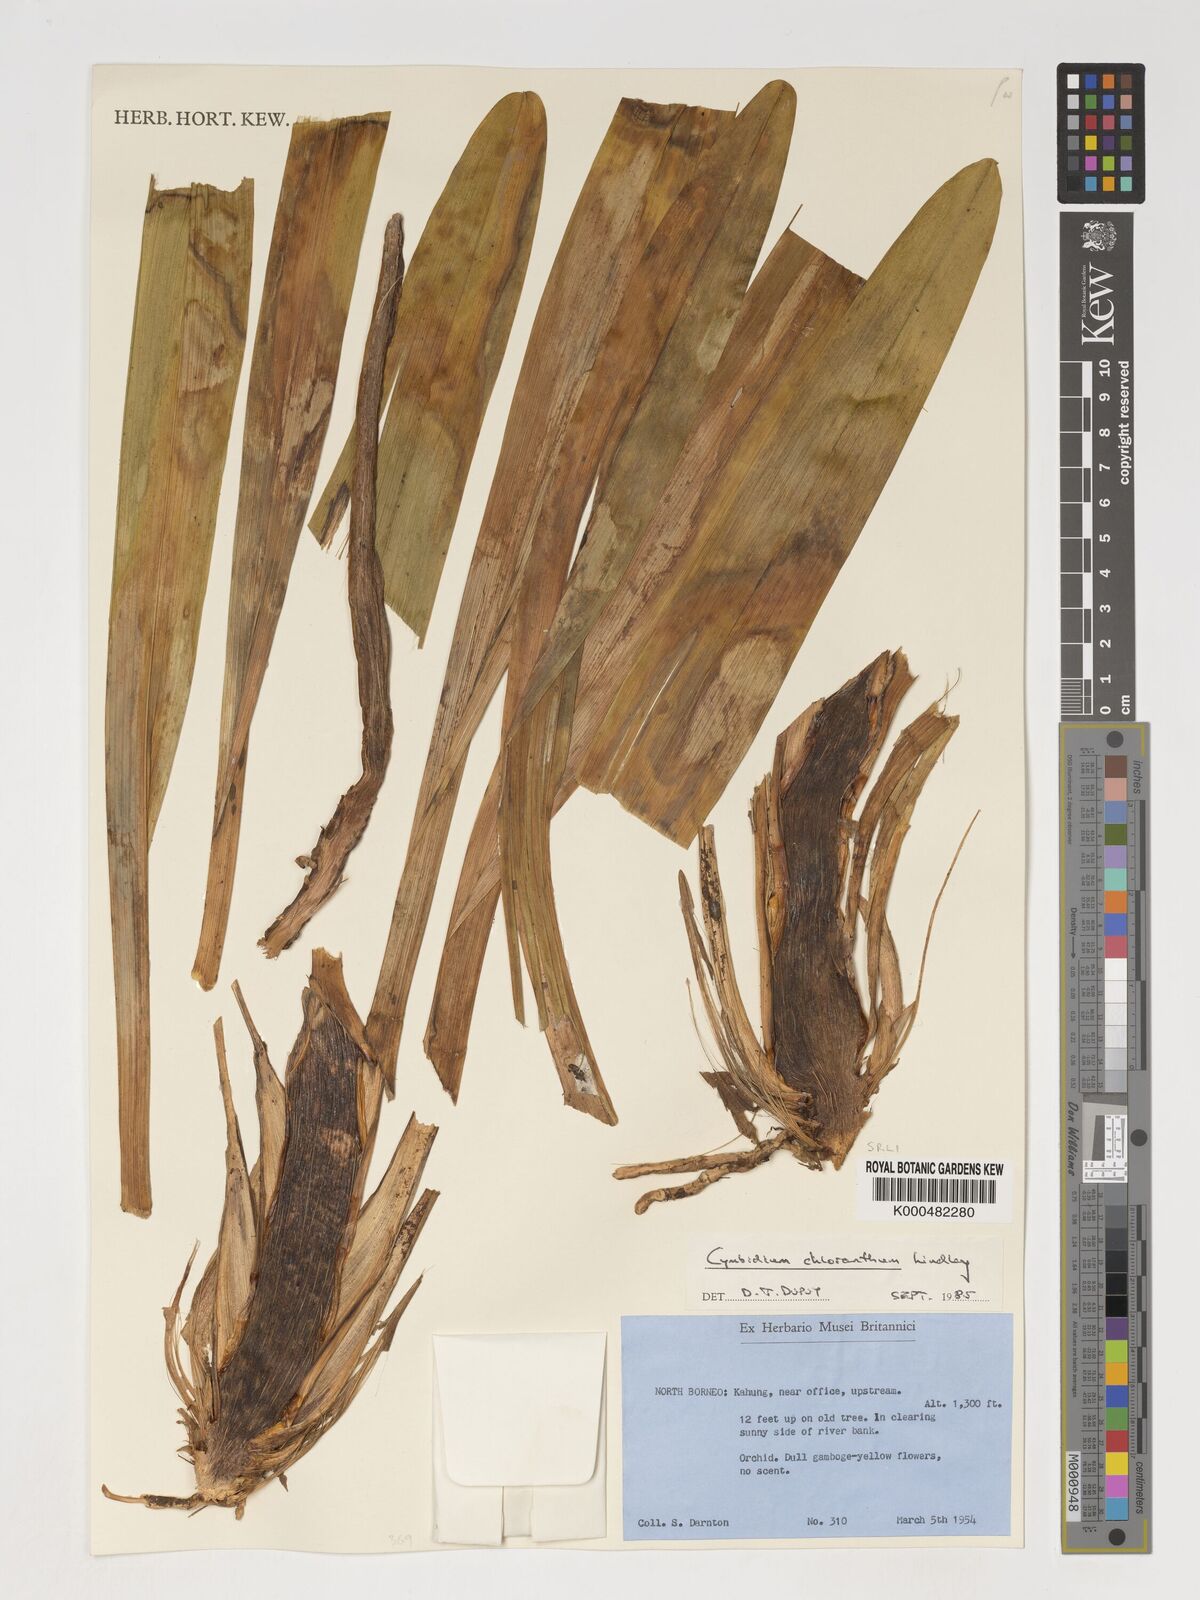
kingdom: Plantae
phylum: Tracheophyta
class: Liliopsida
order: Asparagales
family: Orchidaceae
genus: Cymbidium
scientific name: Cymbidium
